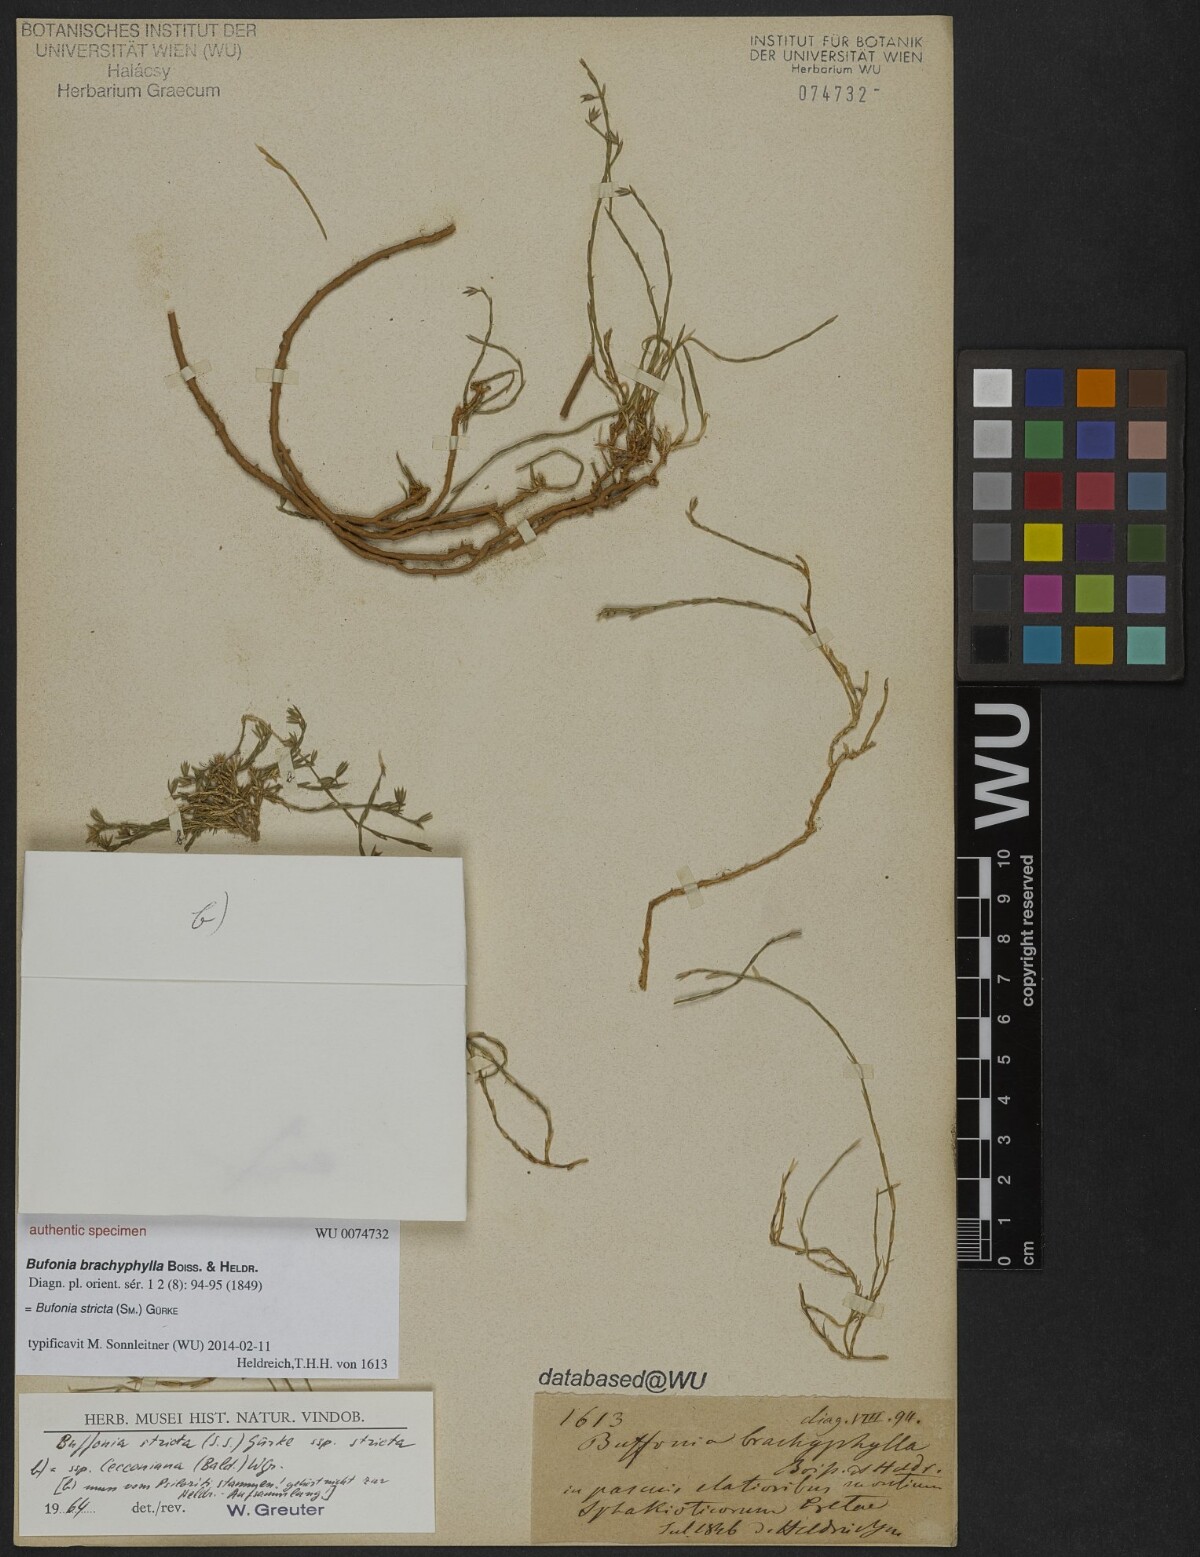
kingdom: Plantae
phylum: Tracheophyta
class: Magnoliopsida
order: Caryophyllales
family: Caryophyllaceae
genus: Bufonia
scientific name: Bufonia stricta
